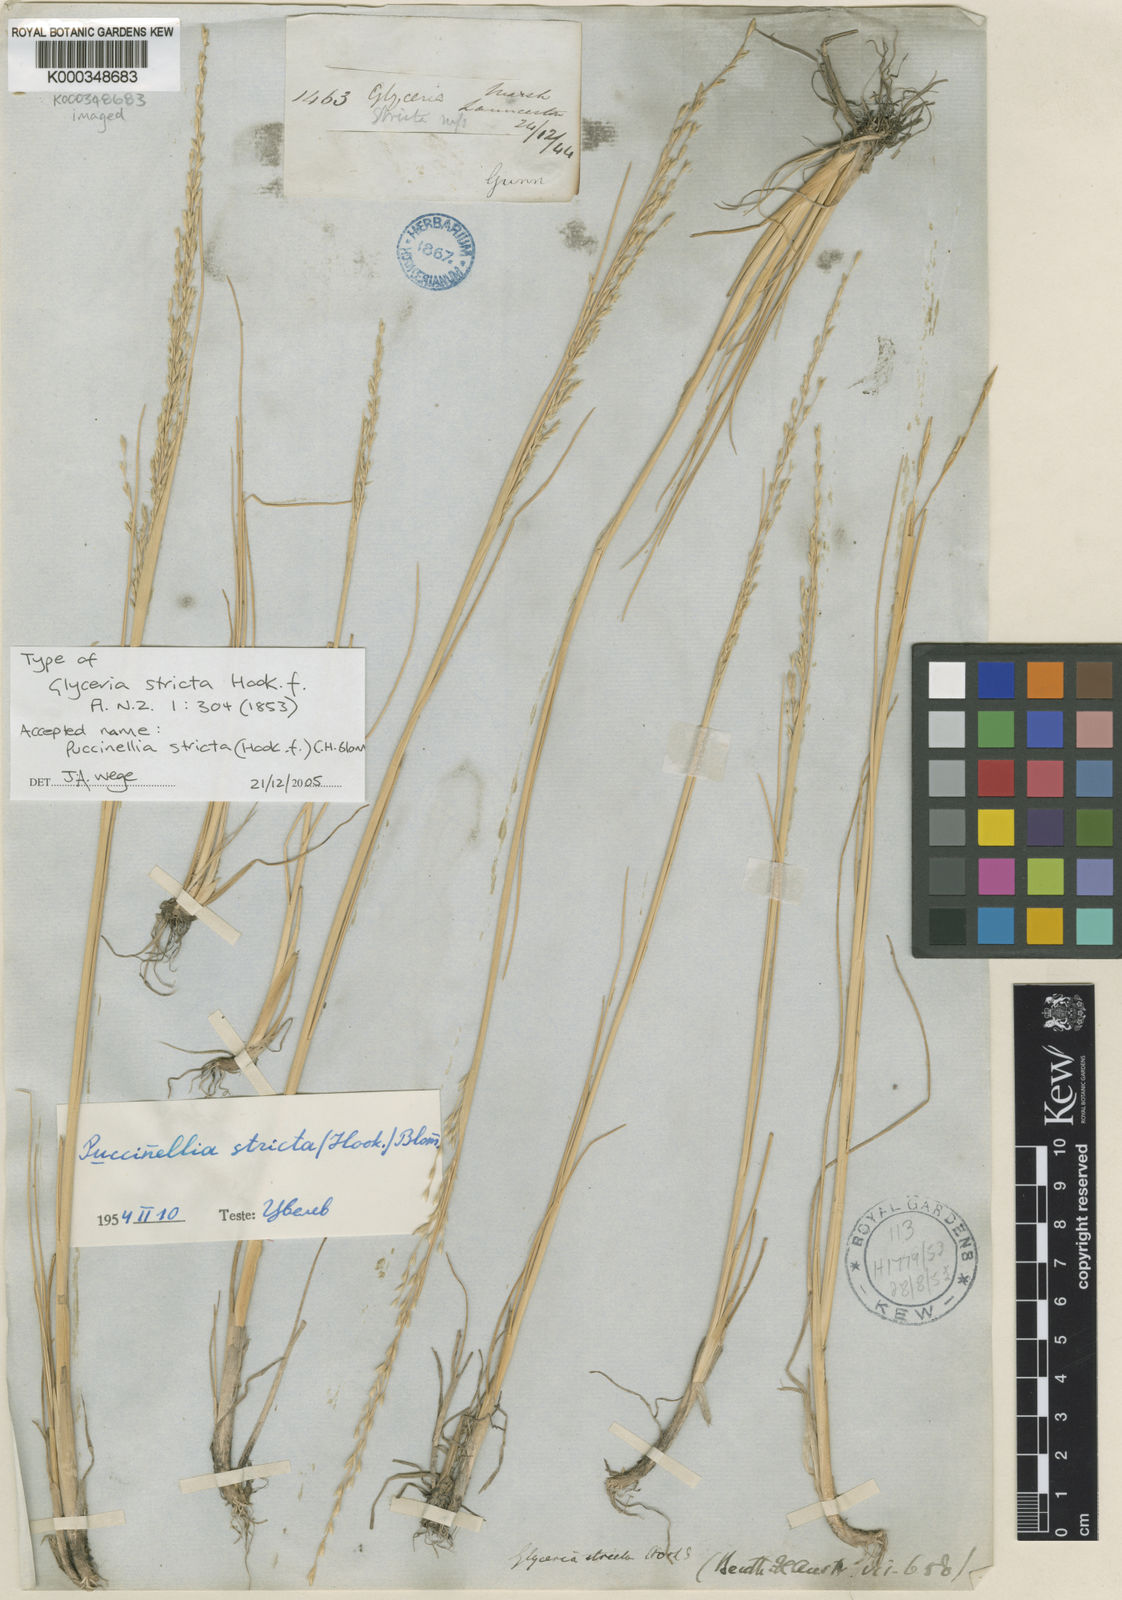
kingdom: Plantae
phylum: Tracheophyta
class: Liliopsida
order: Poales
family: Poaceae
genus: Puccinellia
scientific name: Puccinellia stricta
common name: Australian saltmarsh grass
